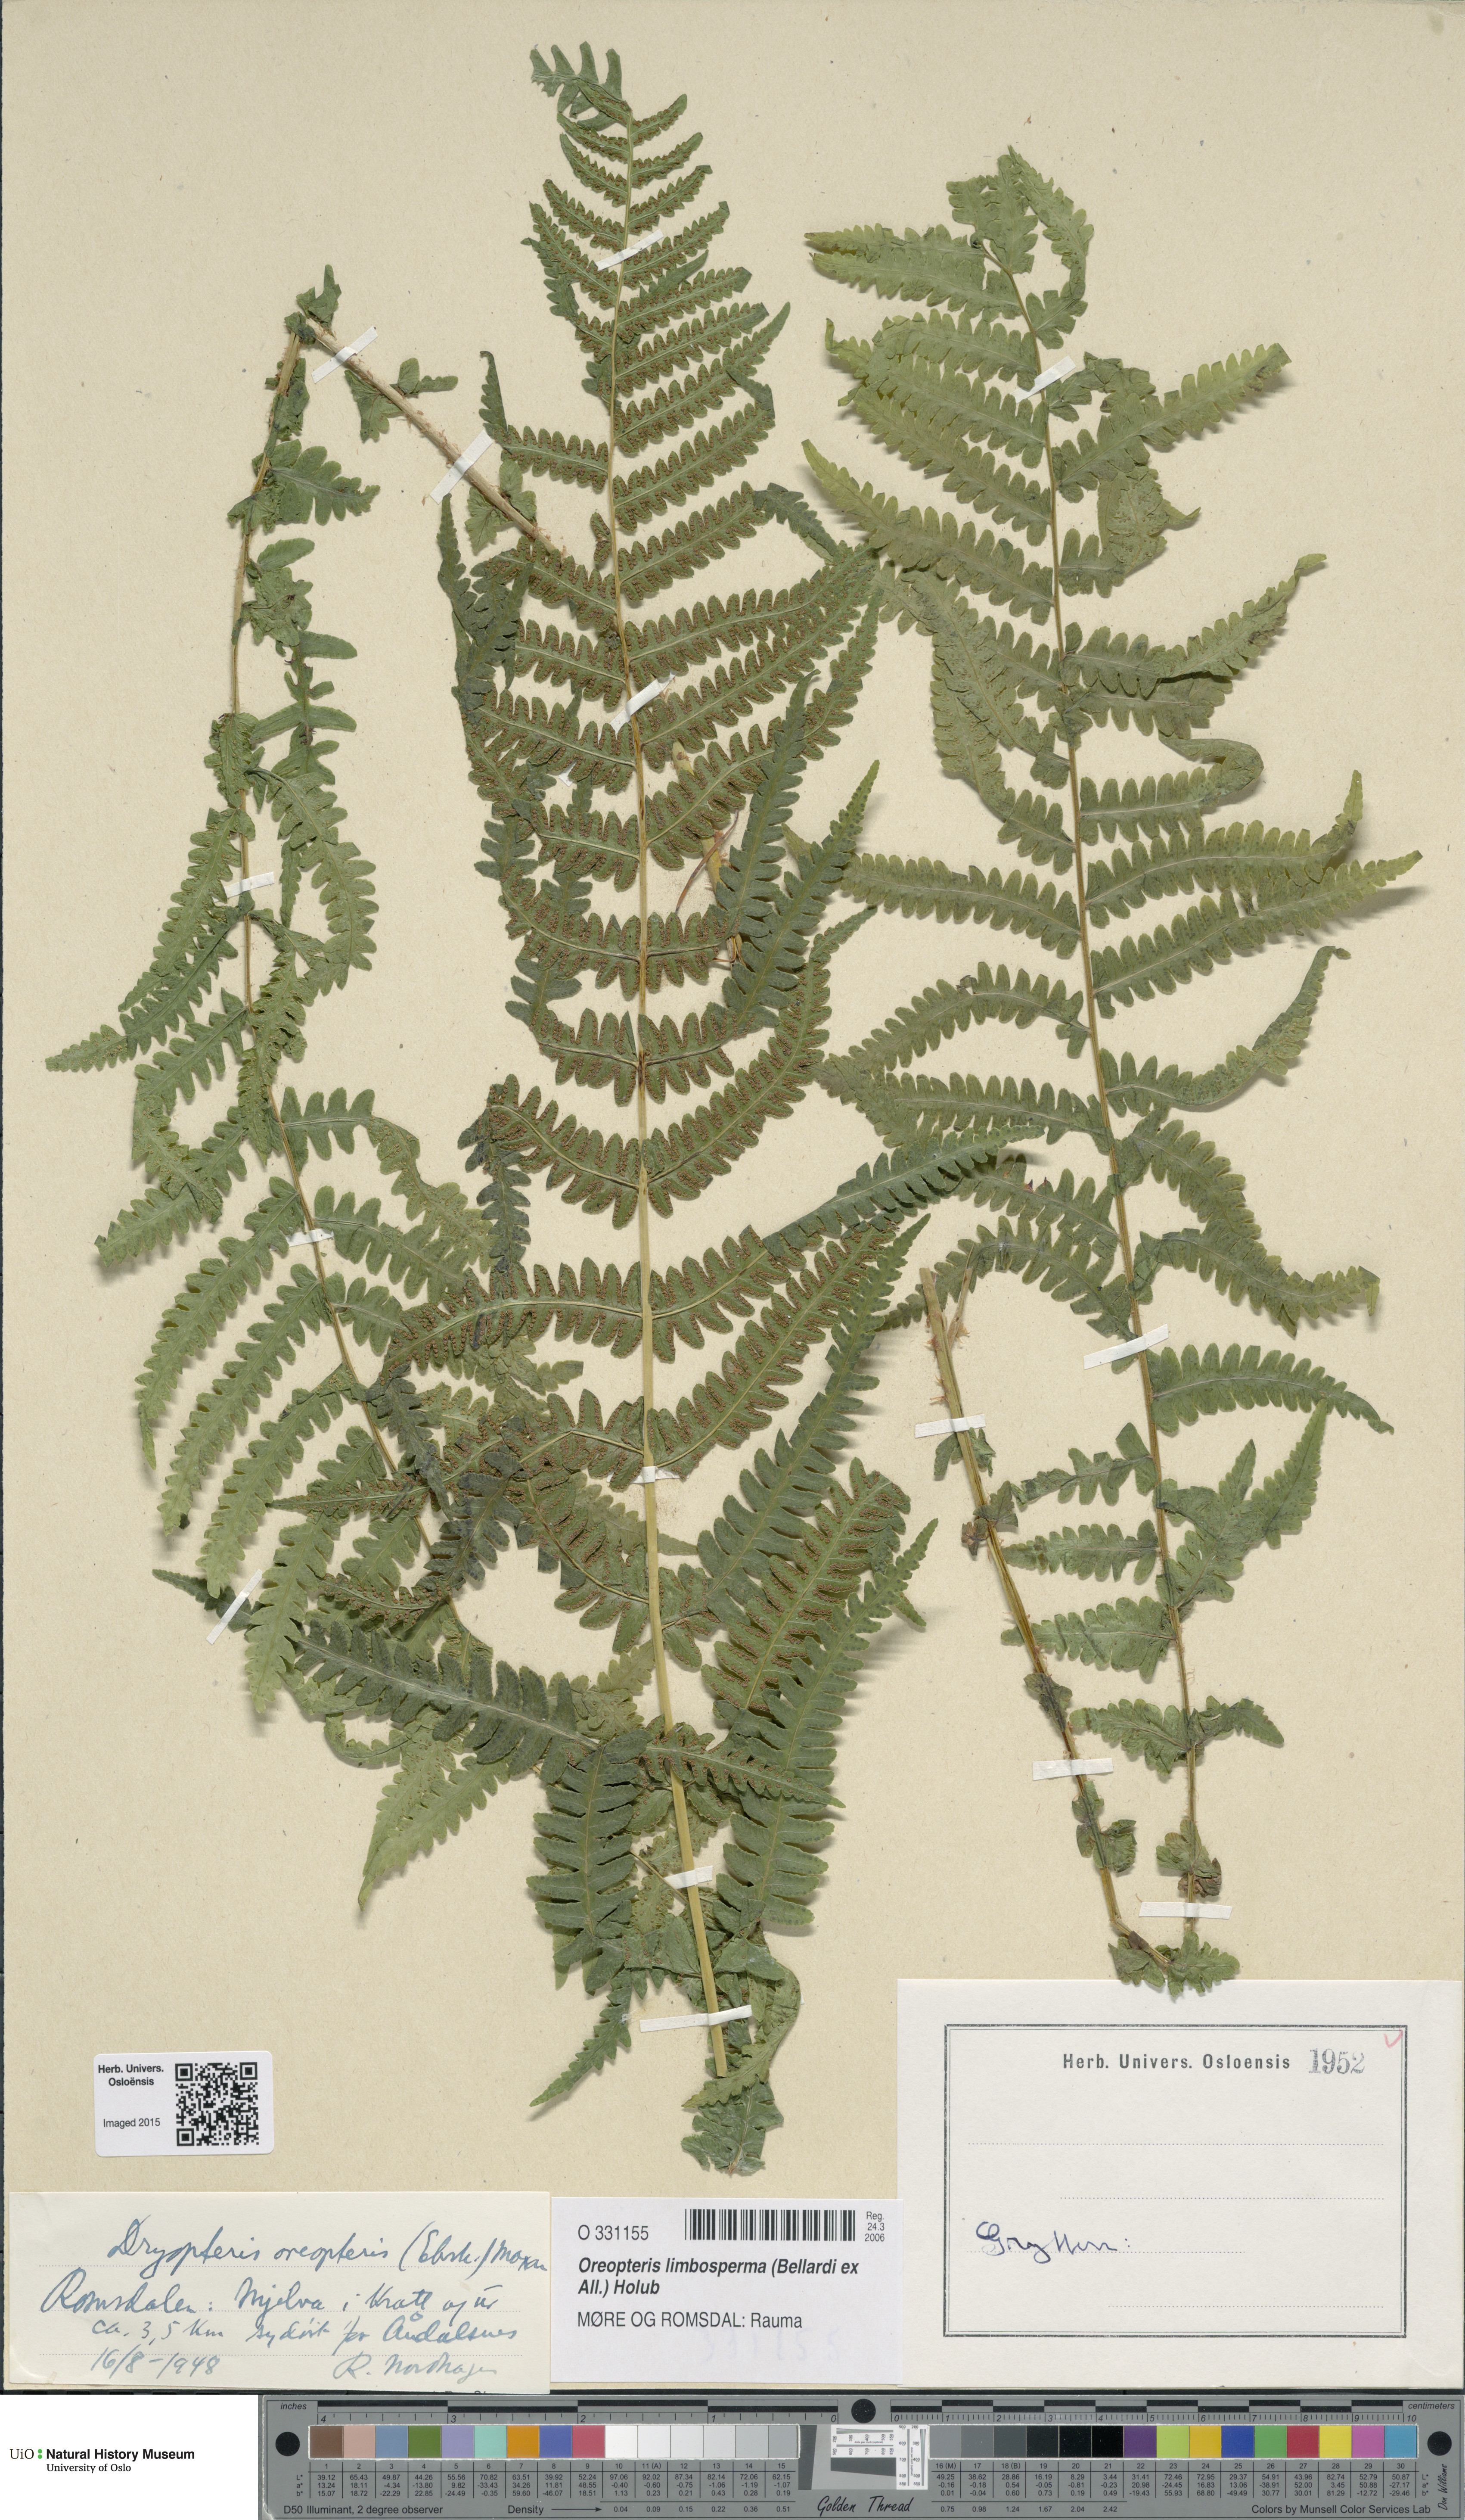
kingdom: Plantae
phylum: Tracheophyta
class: Polypodiopsida
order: Polypodiales
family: Thelypteridaceae
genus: Oreopteris
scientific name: Oreopteris limbosperma
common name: Lemon-scented fern
